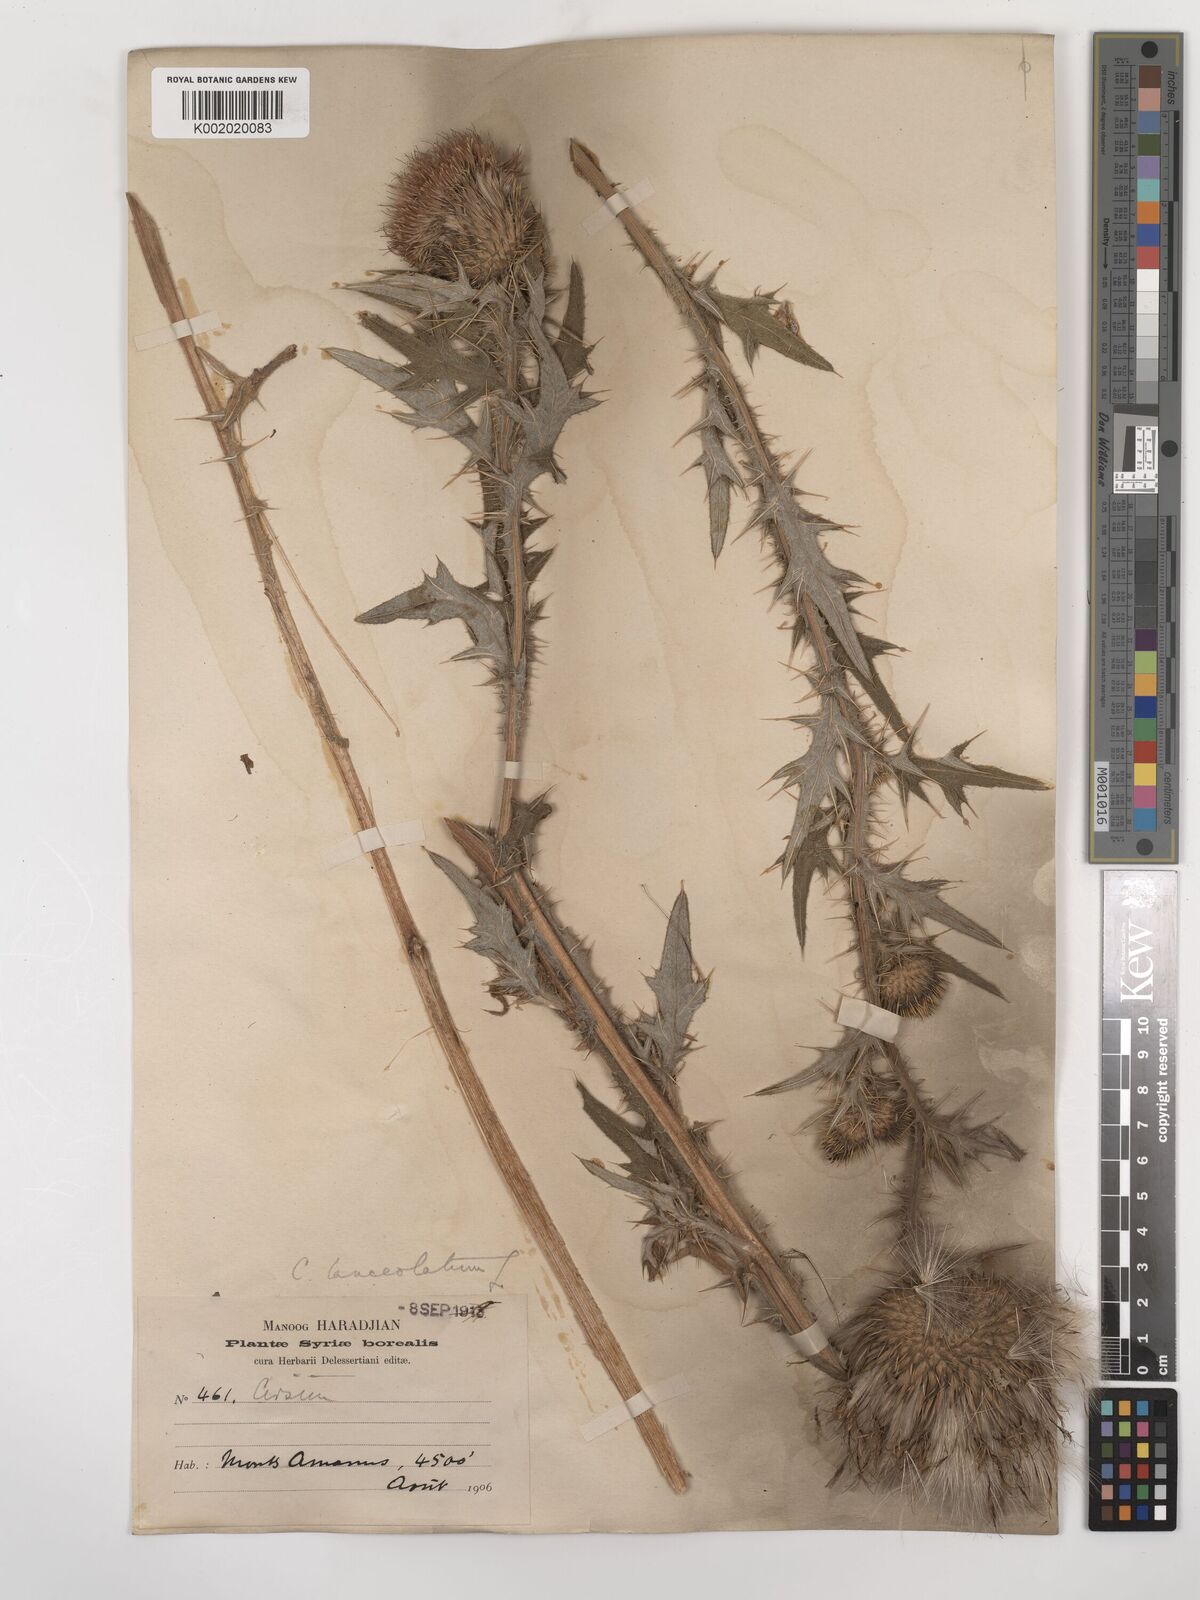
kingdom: Plantae
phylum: Tracheophyta
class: Magnoliopsida
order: Asterales
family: Asteraceae
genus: Cirsium
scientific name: Cirsium vulgare
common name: Bull thistle
